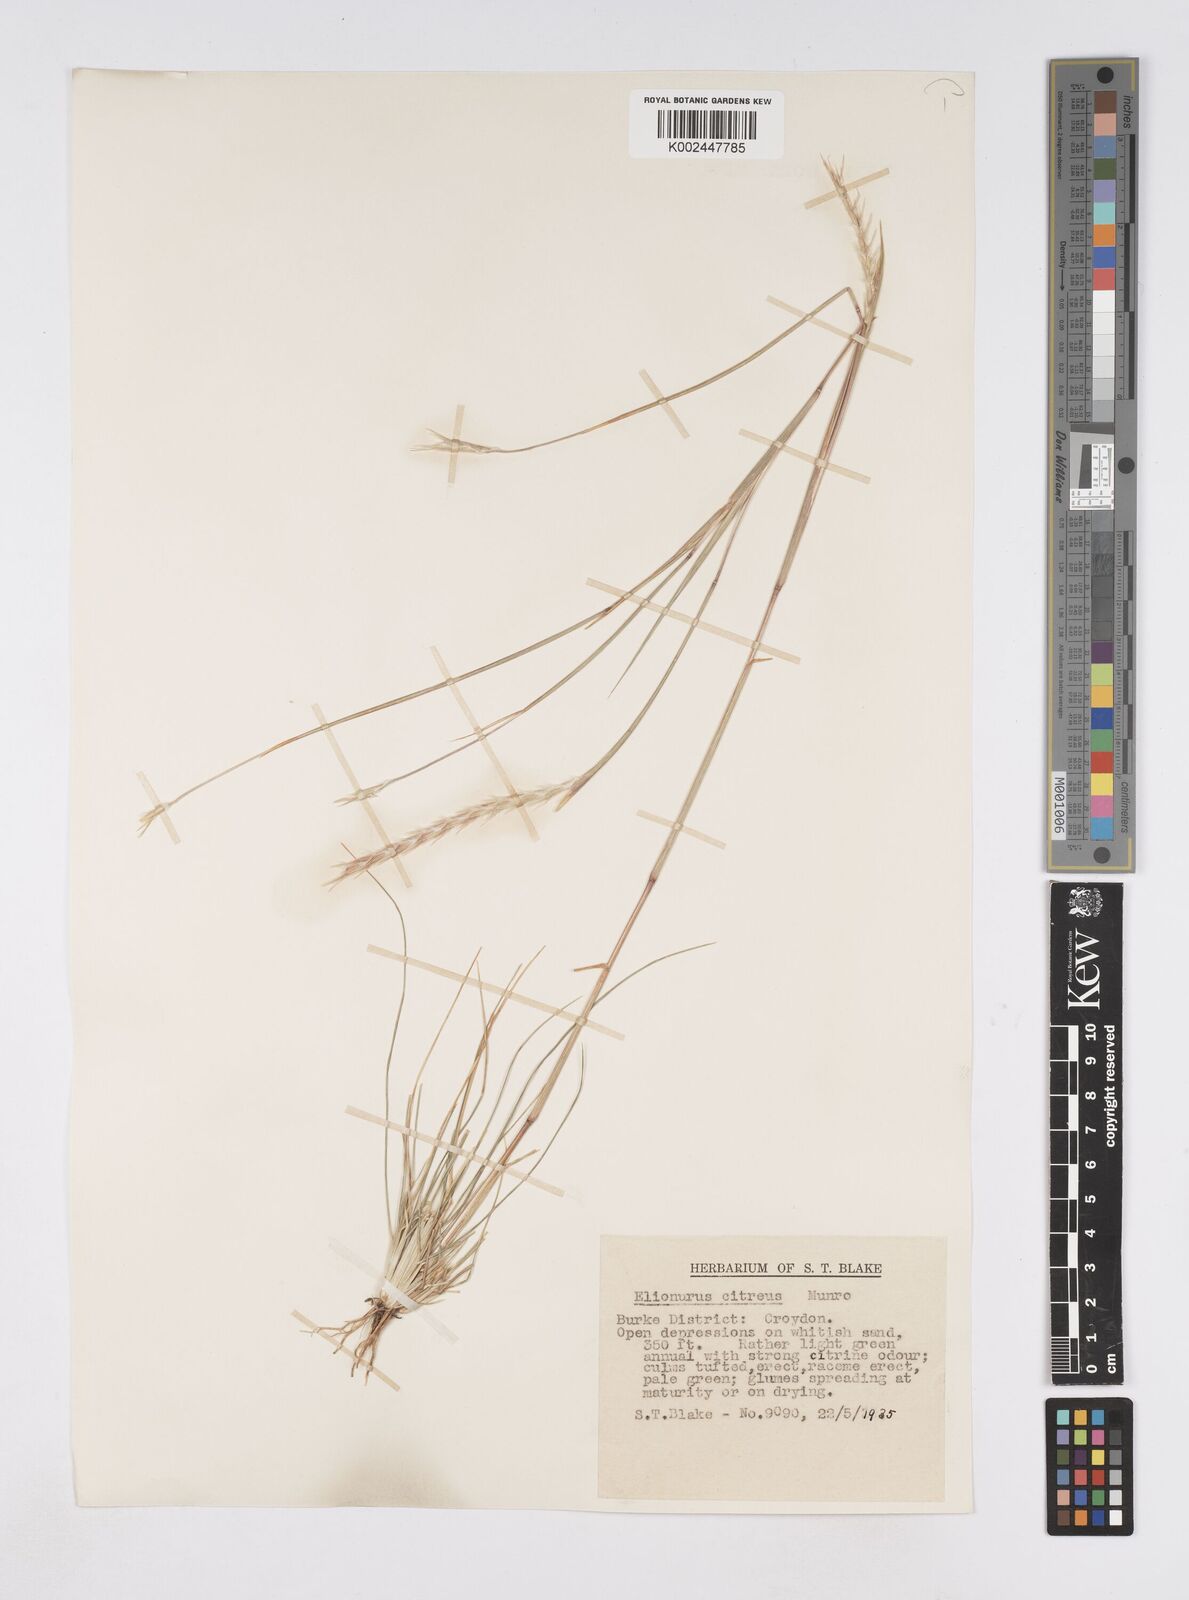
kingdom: Plantae
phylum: Tracheophyta
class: Liliopsida
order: Poales
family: Poaceae
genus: Elionurus
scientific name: Elionurus citreus
